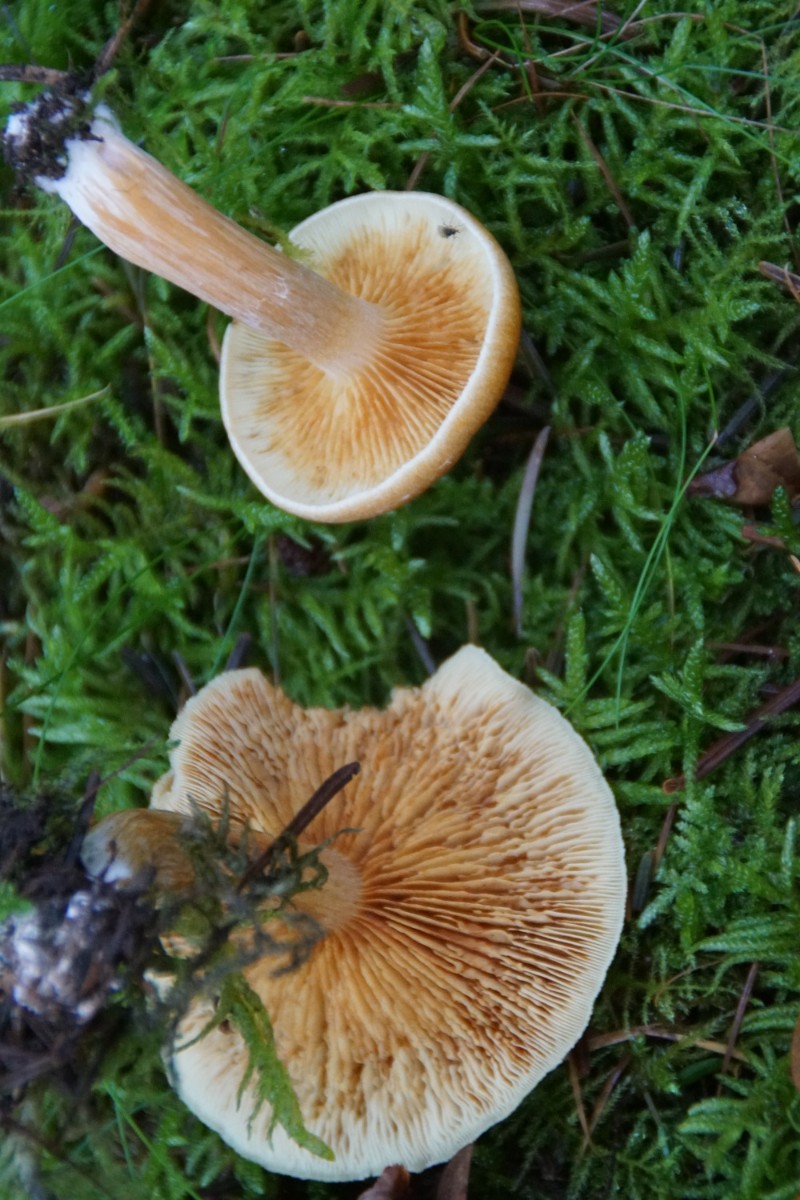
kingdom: Fungi
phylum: Basidiomycota
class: Agaricomycetes
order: Agaricales
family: Hymenogastraceae
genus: Gymnopilus
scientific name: Gymnopilus penetrans
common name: plettet flammehat
